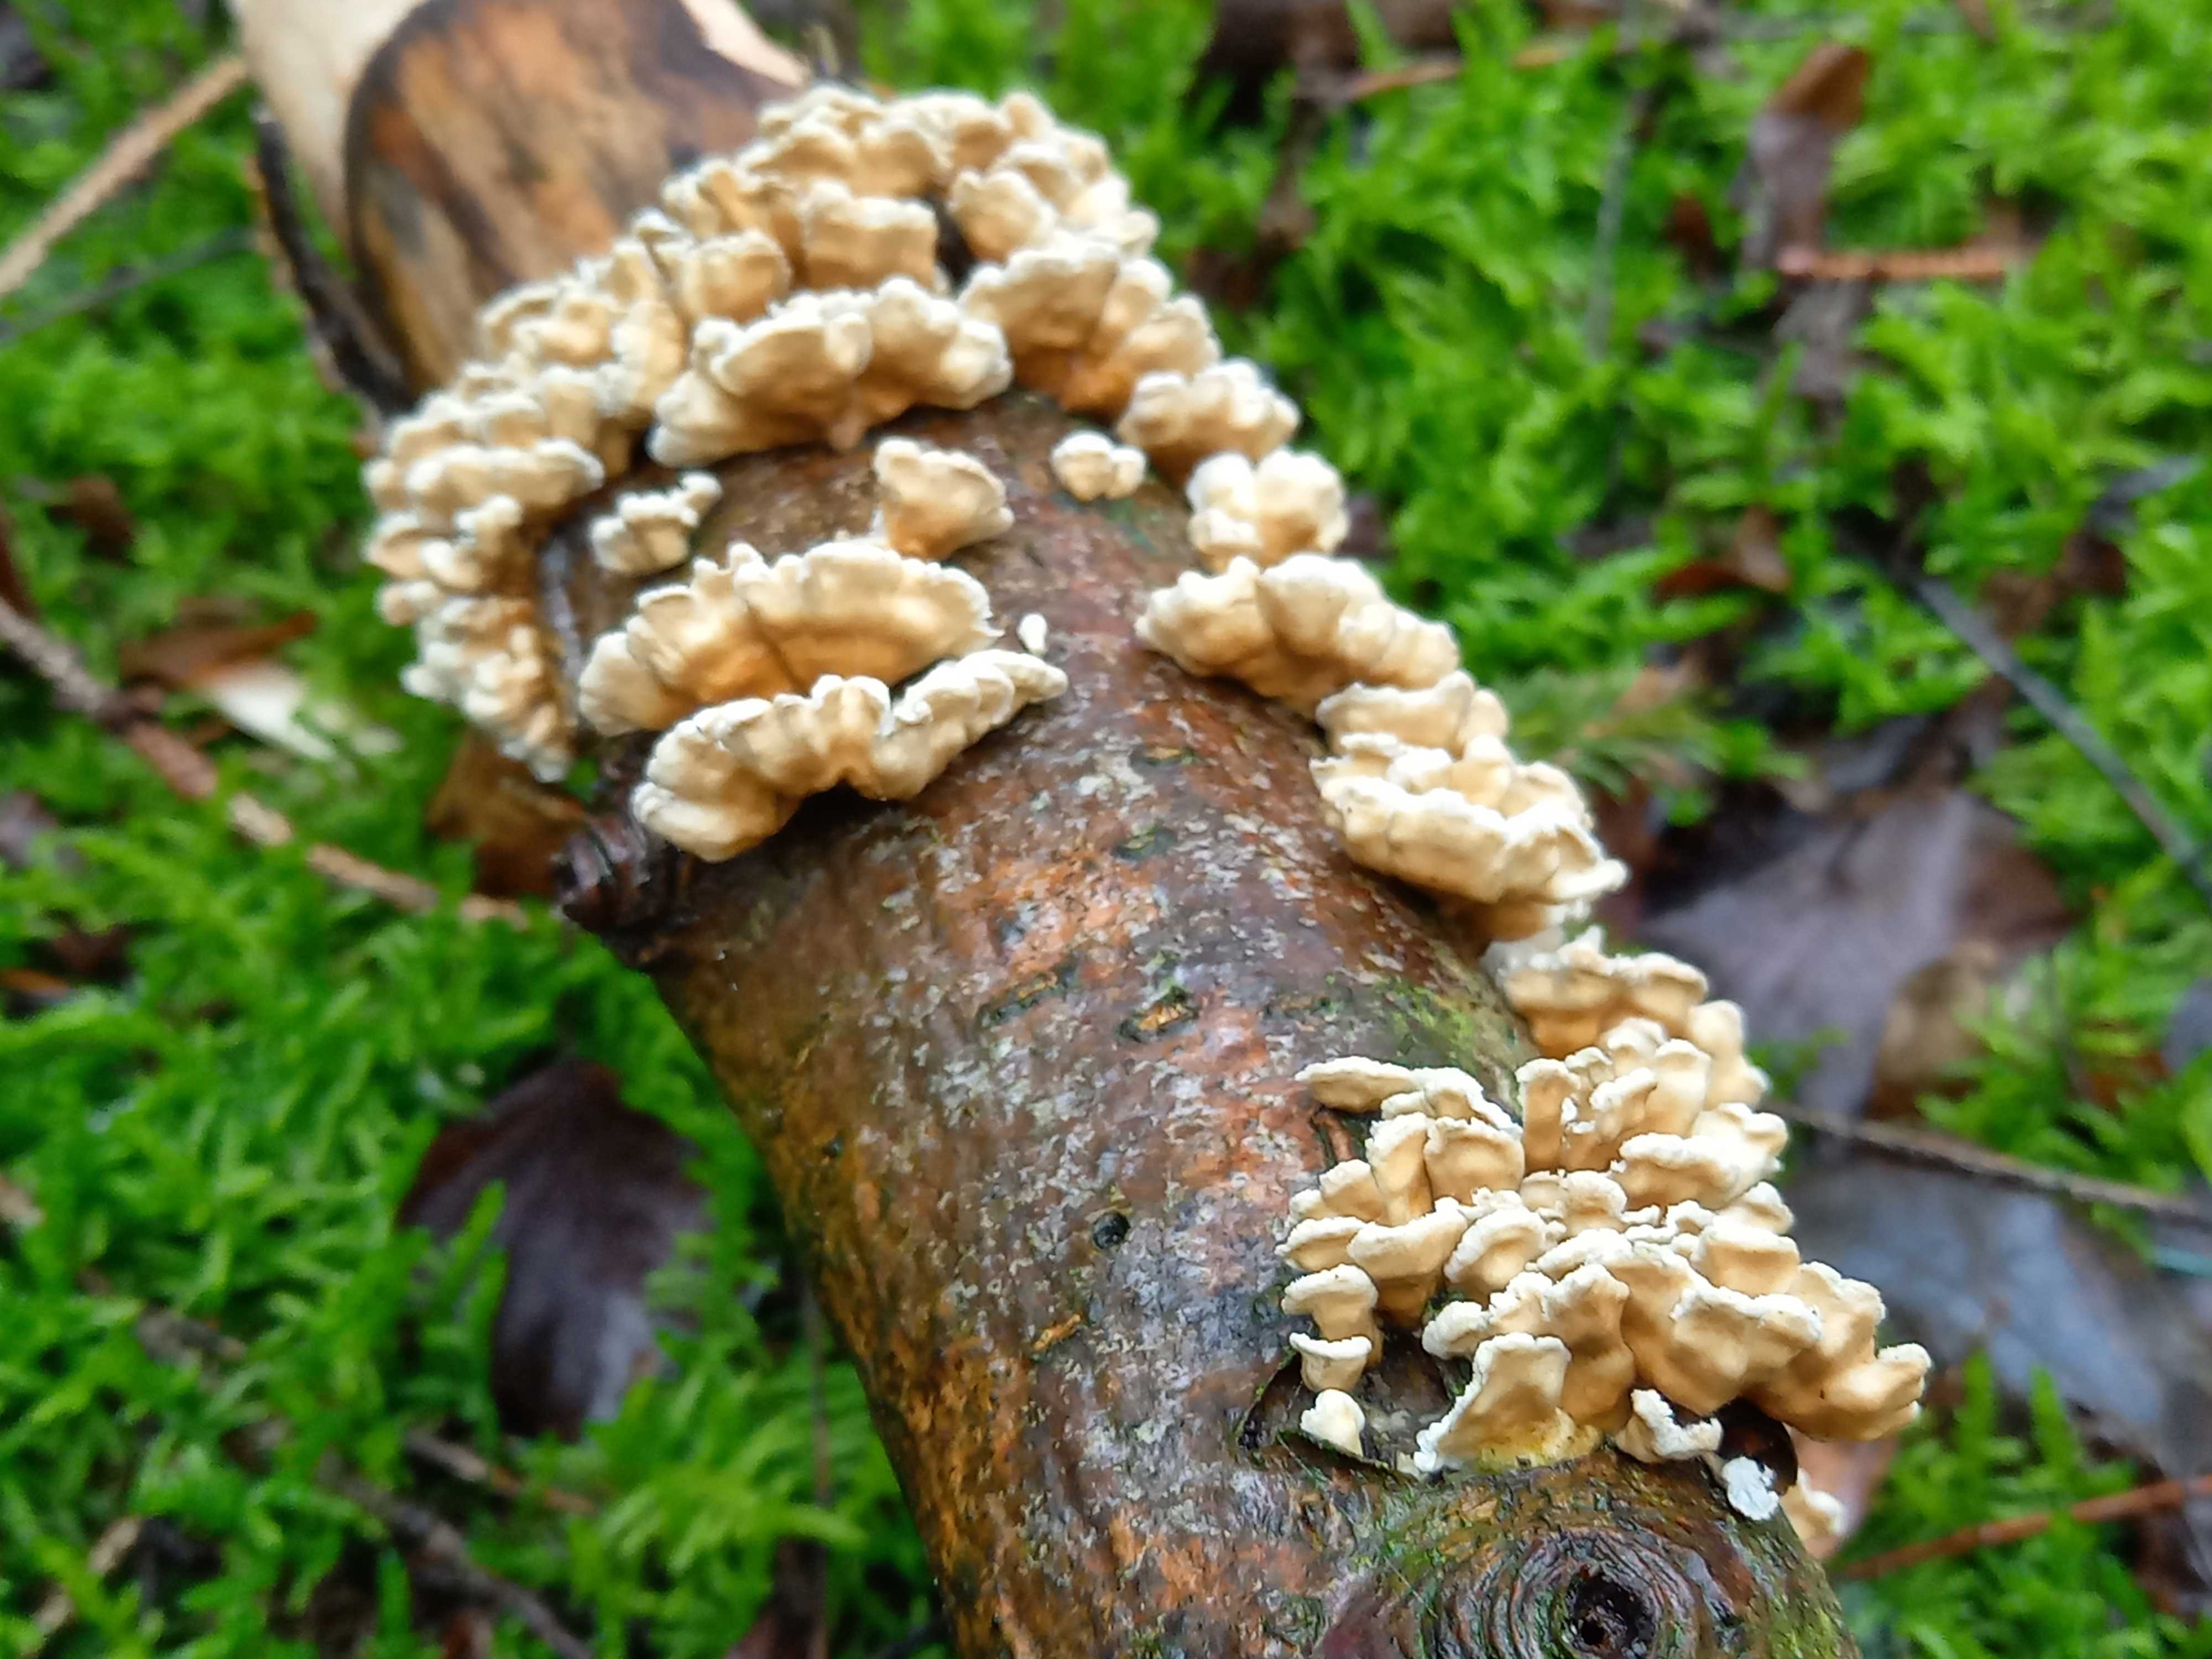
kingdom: Fungi
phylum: Basidiomycota
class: Agaricomycetes
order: Amylocorticiales
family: Amylocorticiaceae
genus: Plicaturopsis
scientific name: Plicaturopsis crispa
